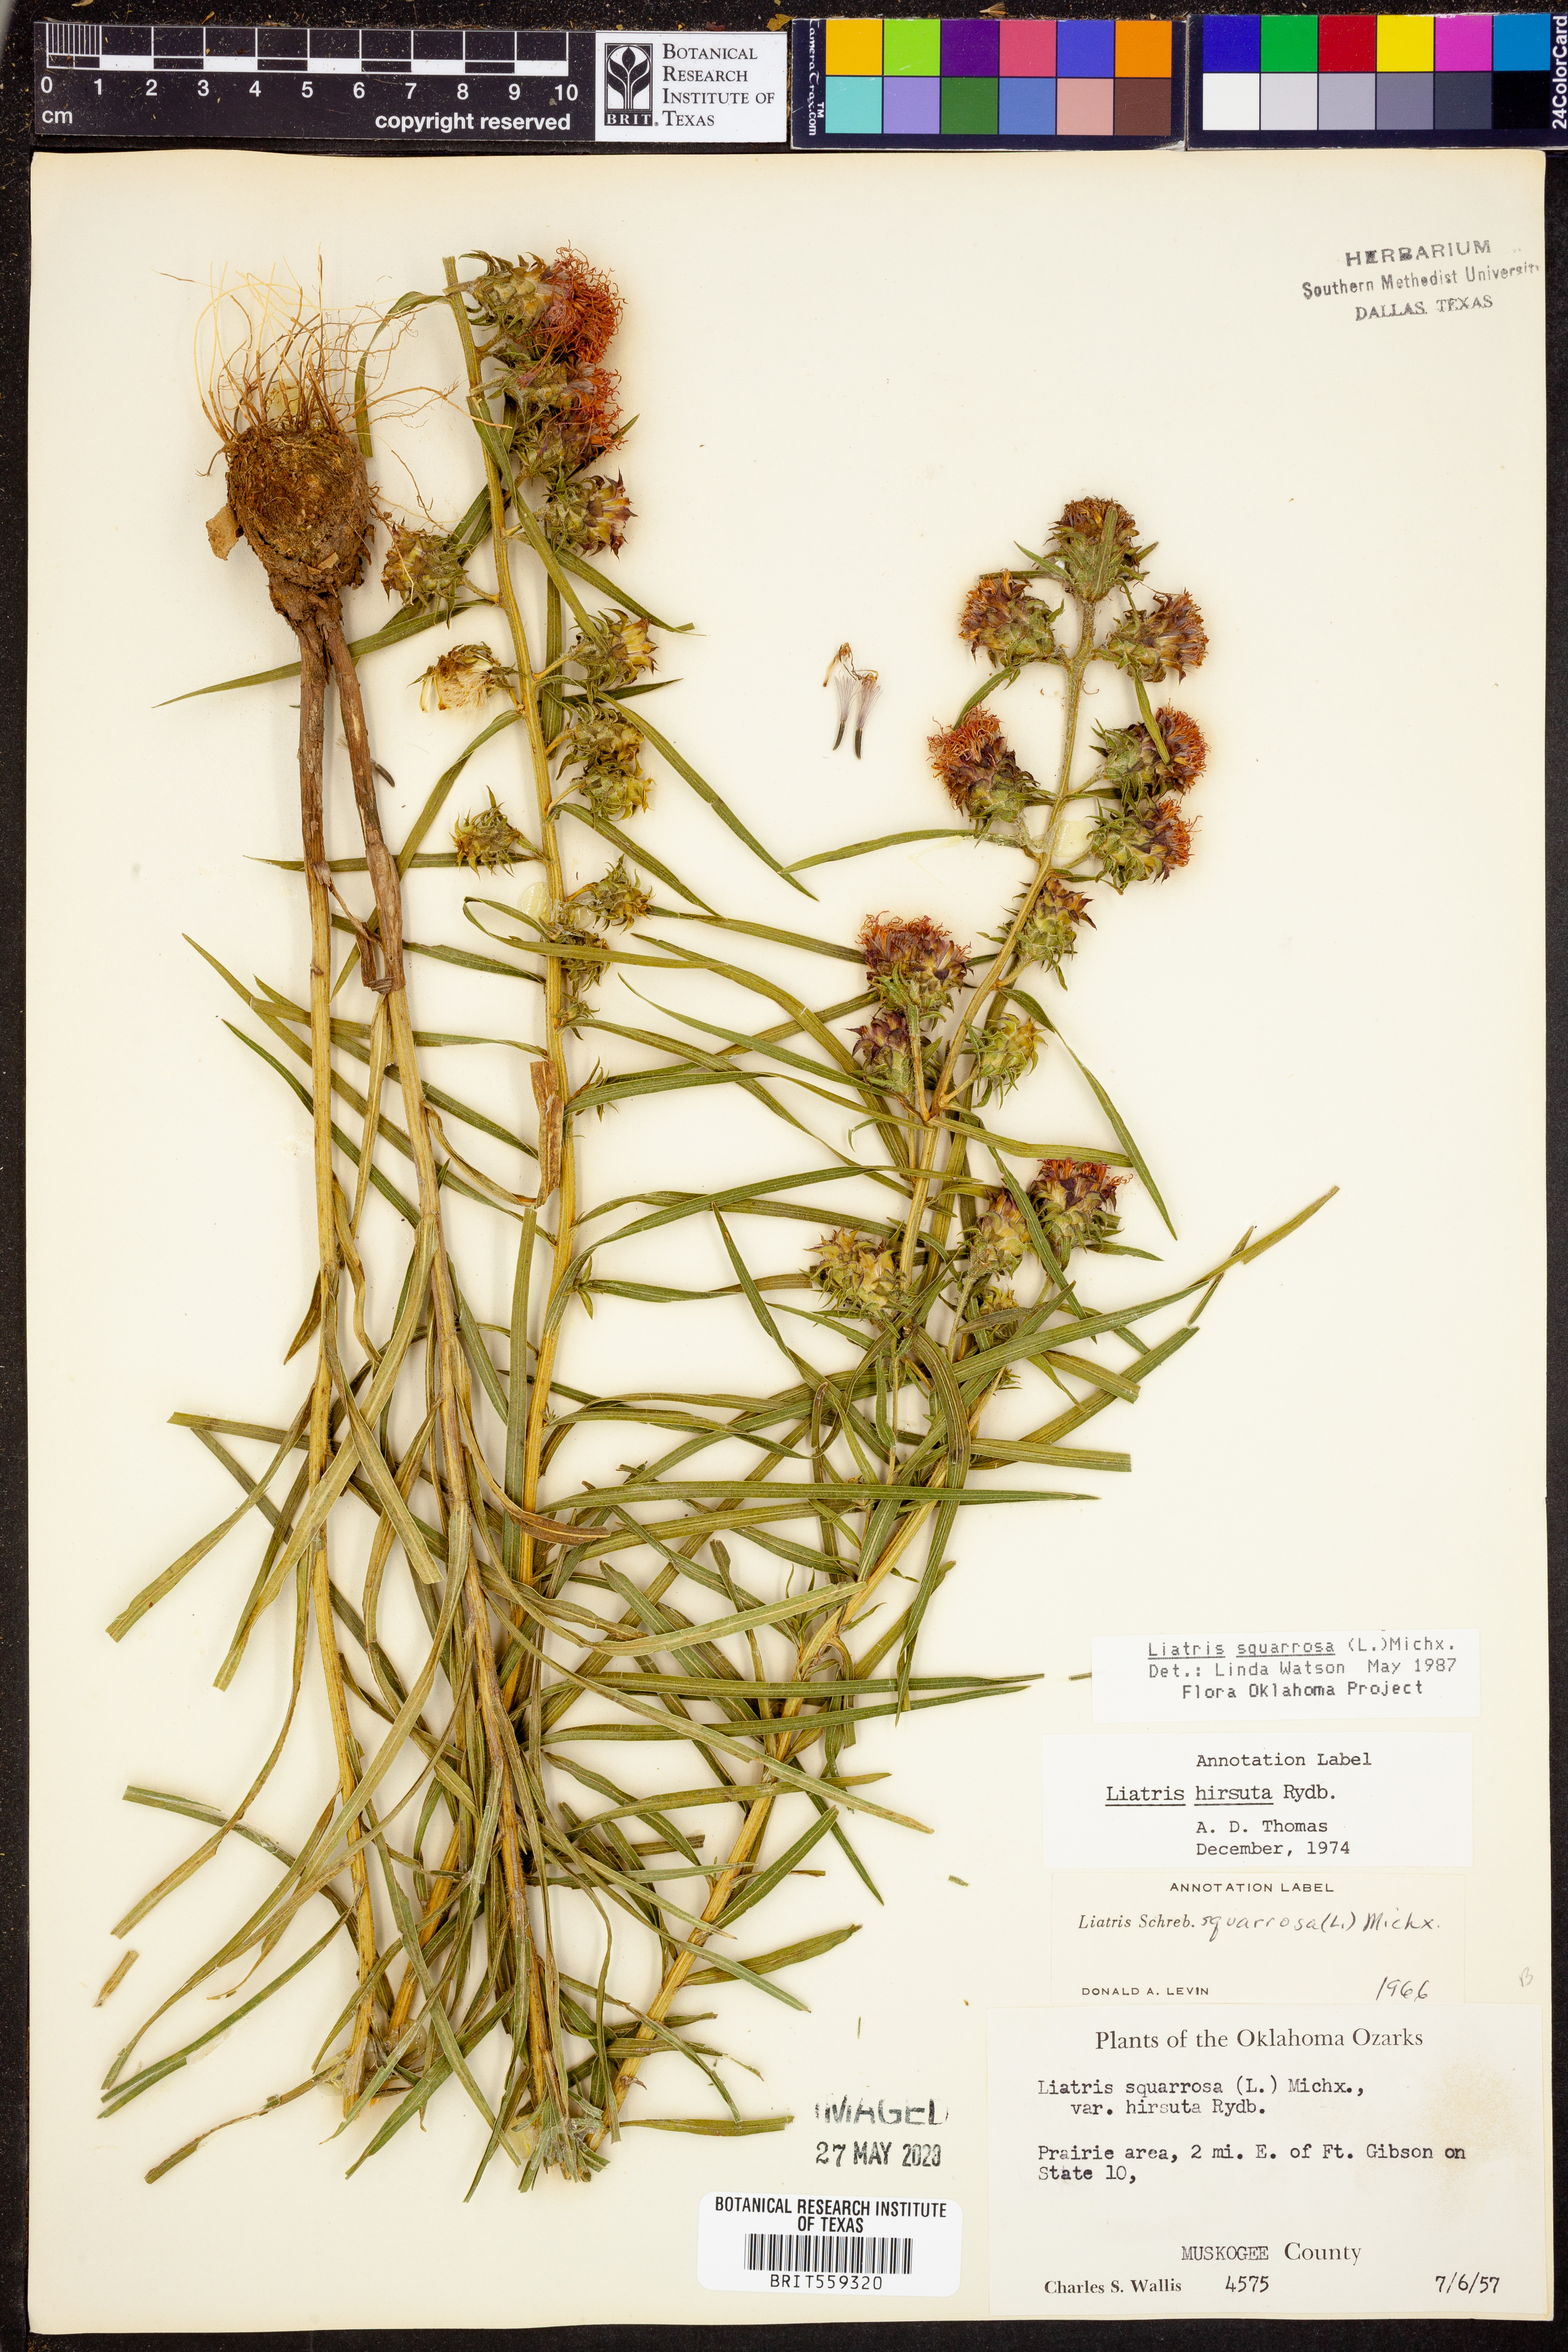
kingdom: Plantae
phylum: Tracheophyta
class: Magnoliopsida
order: Asterales
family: Asteraceae
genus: Liatris
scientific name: Liatris squarrosa
